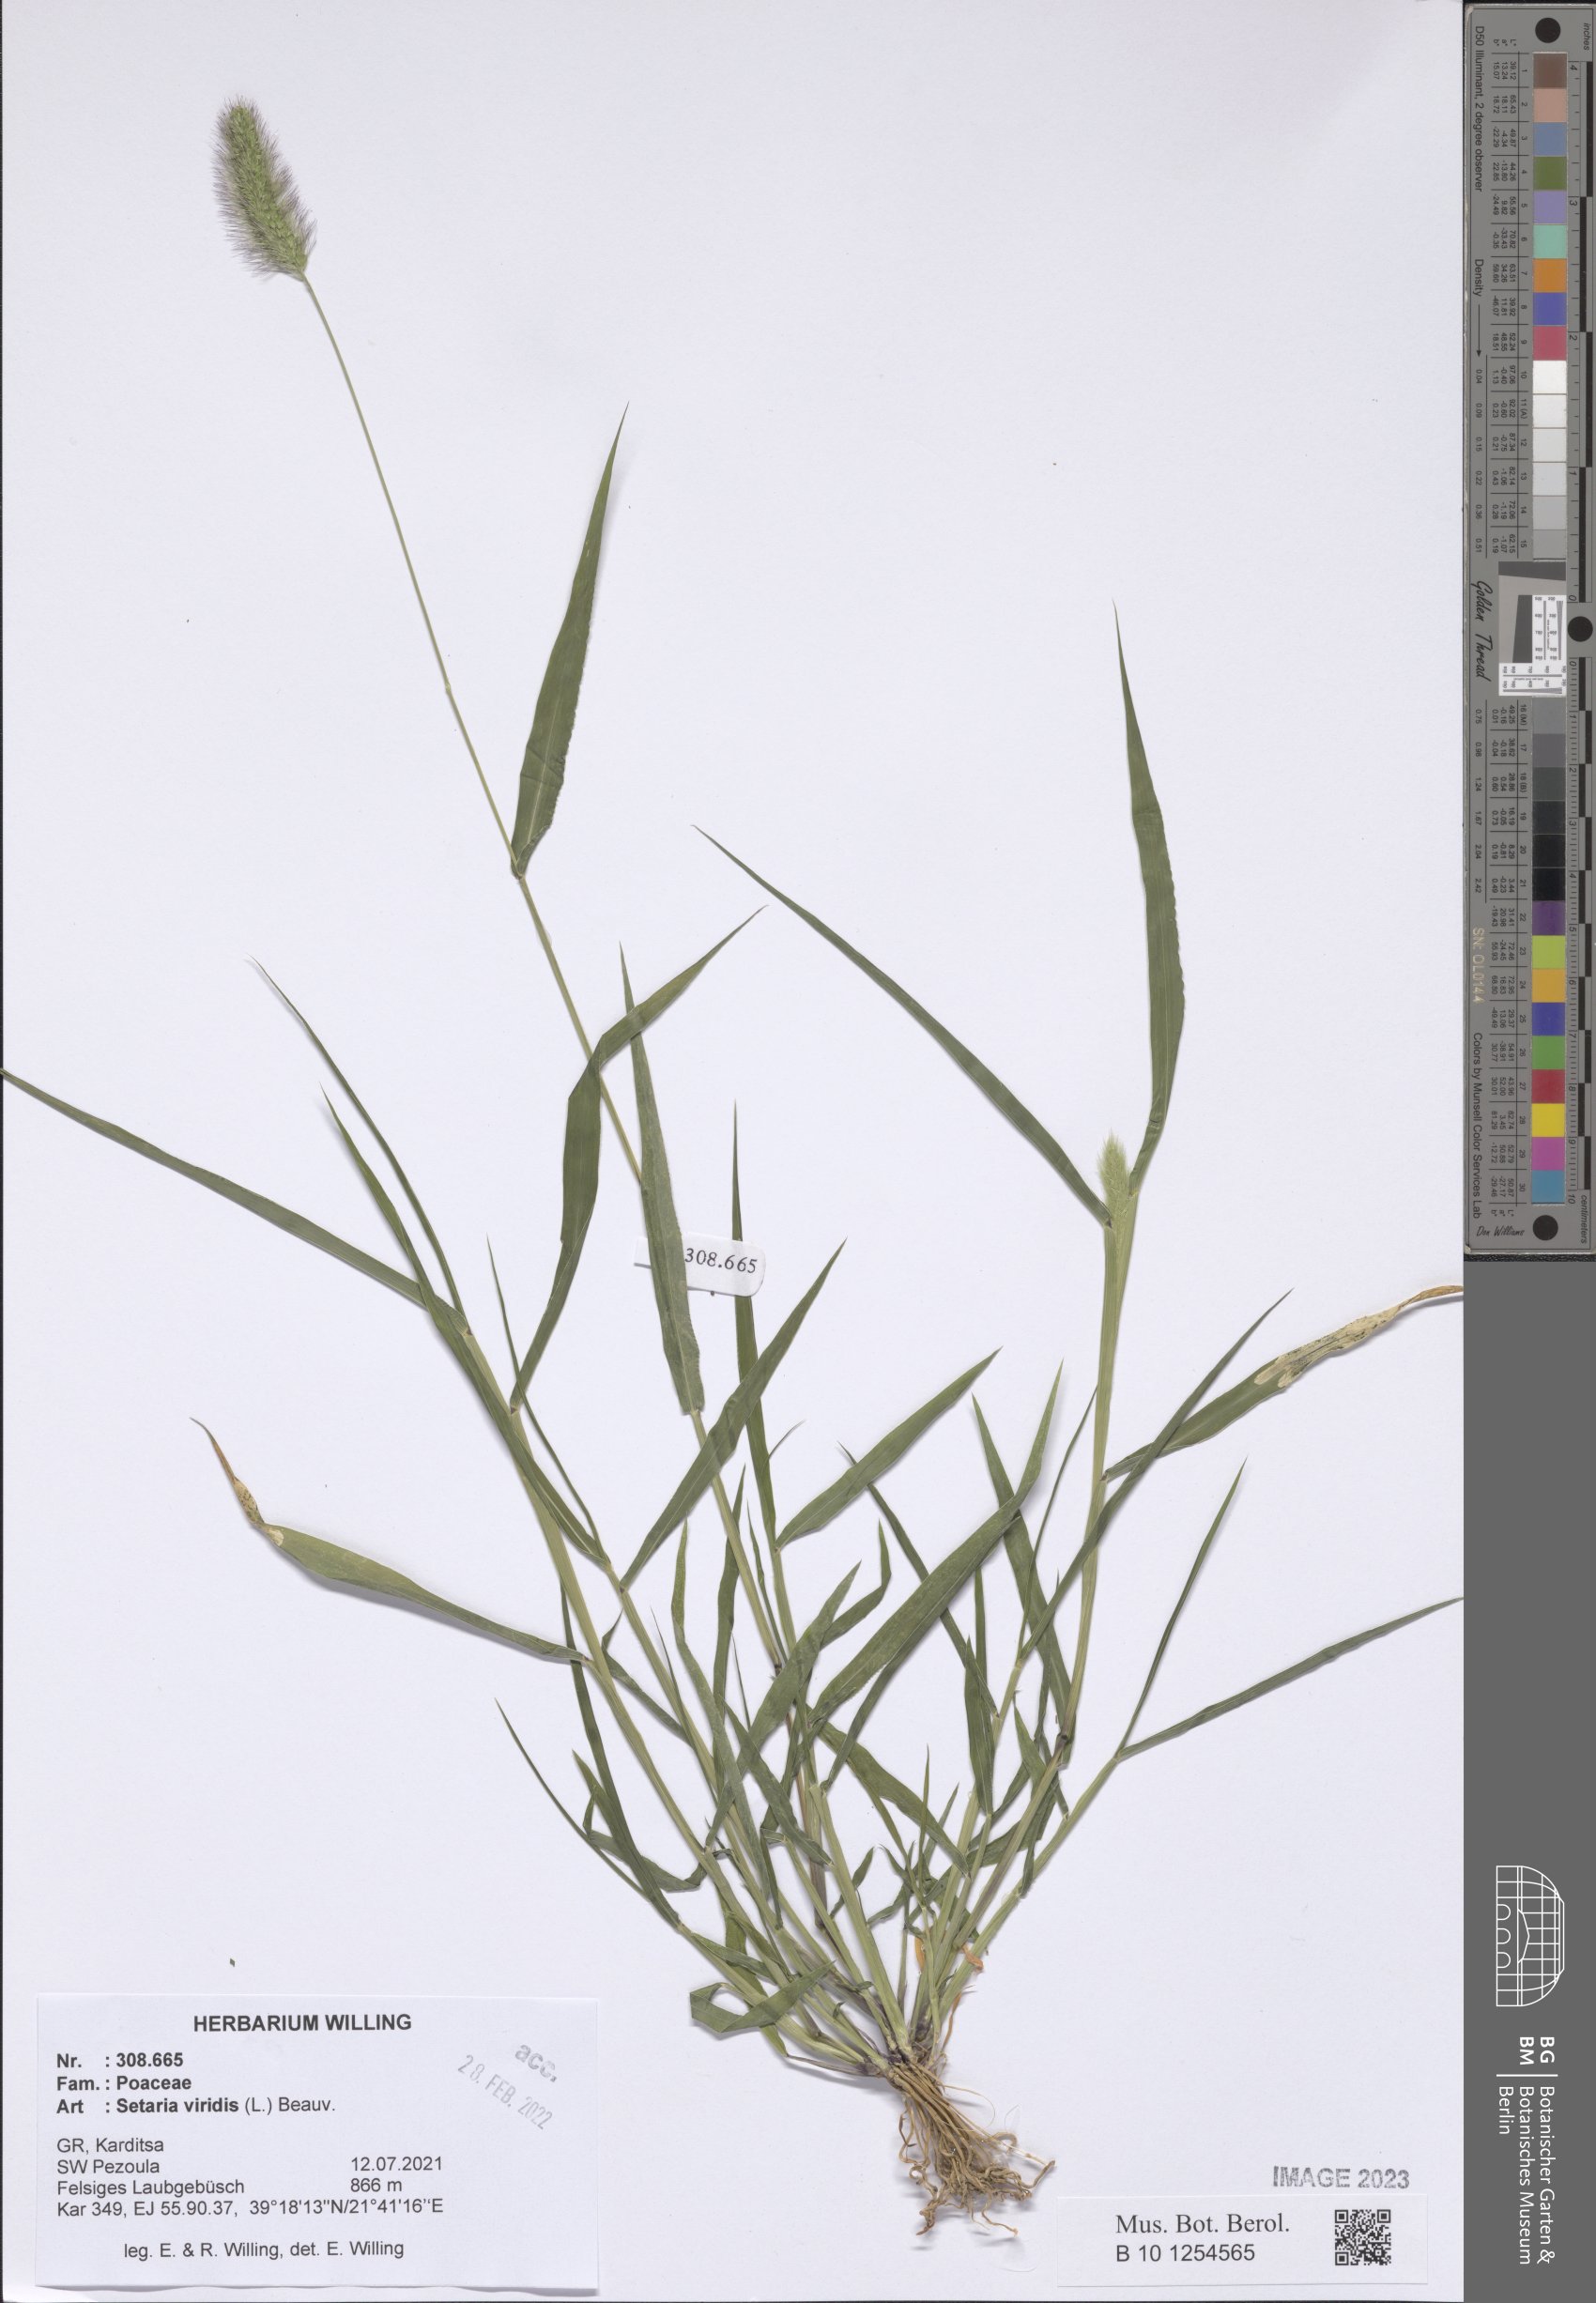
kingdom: Plantae
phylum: Tracheophyta
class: Liliopsida
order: Poales
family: Poaceae
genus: Setaria
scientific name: Setaria viridis
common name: Green bristlegrass
